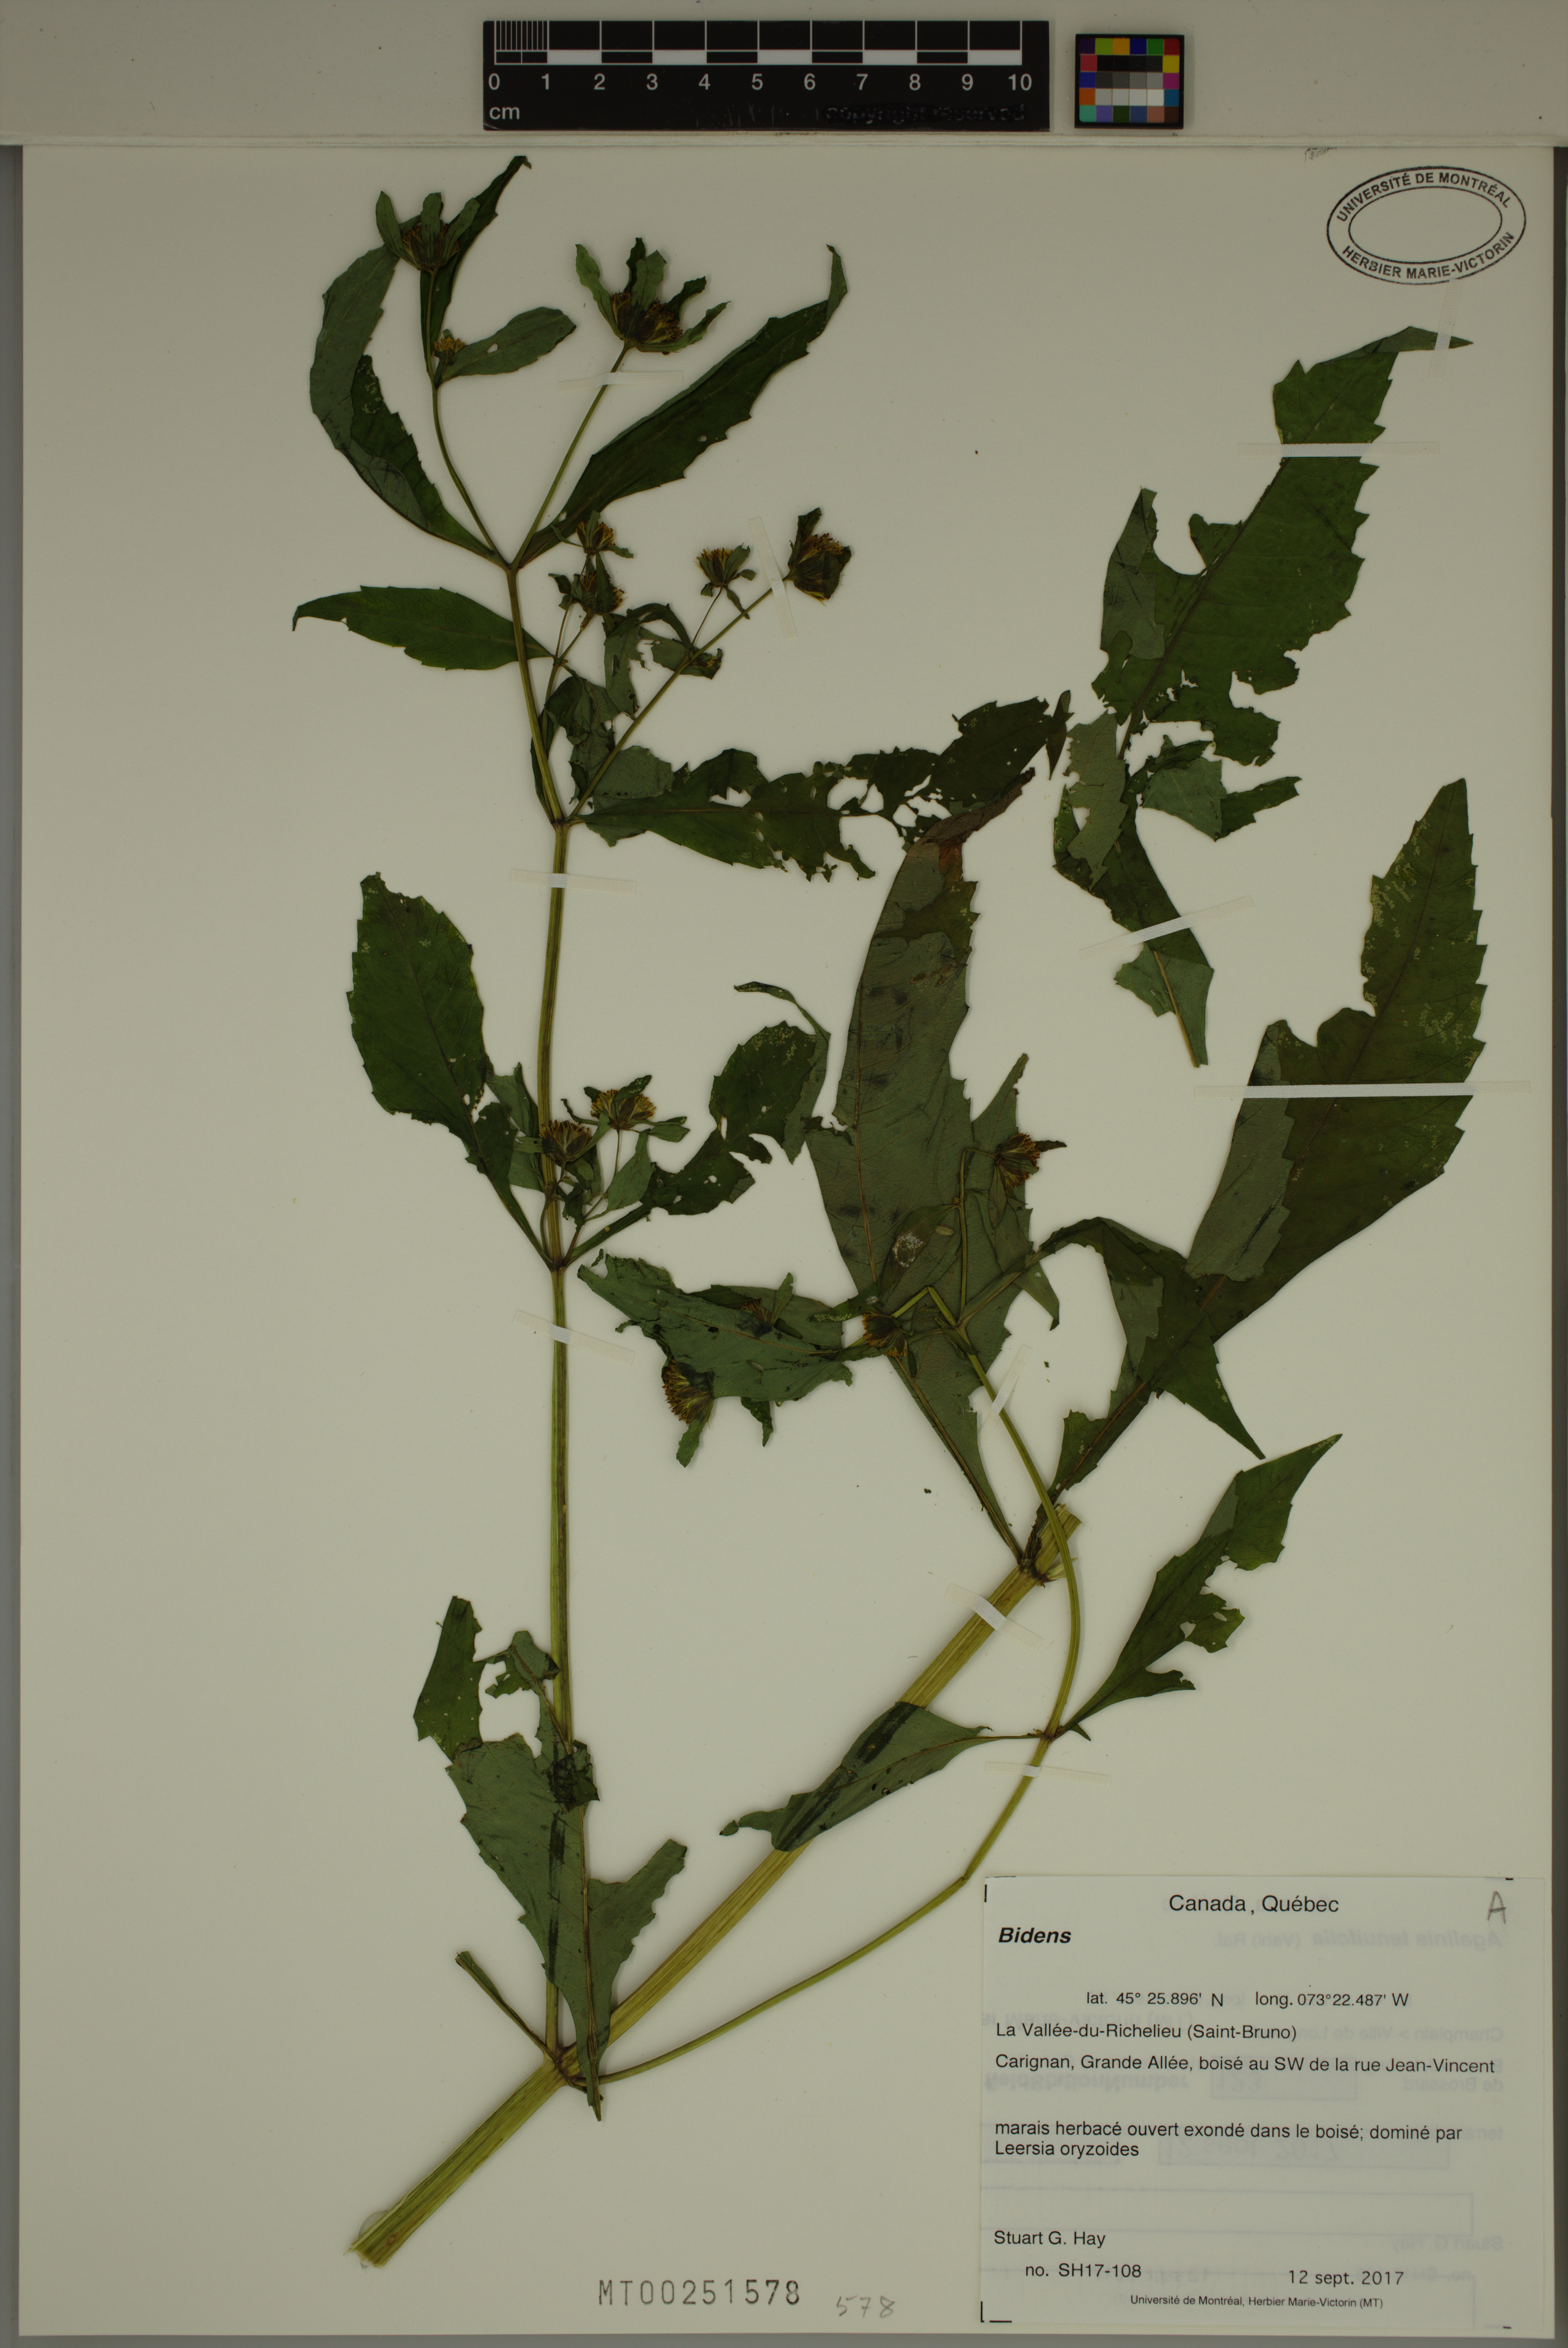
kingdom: Plantae
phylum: Tracheophyta
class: Magnoliopsida
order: Asterales
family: Asteraceae
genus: Bidens
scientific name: Bidens
